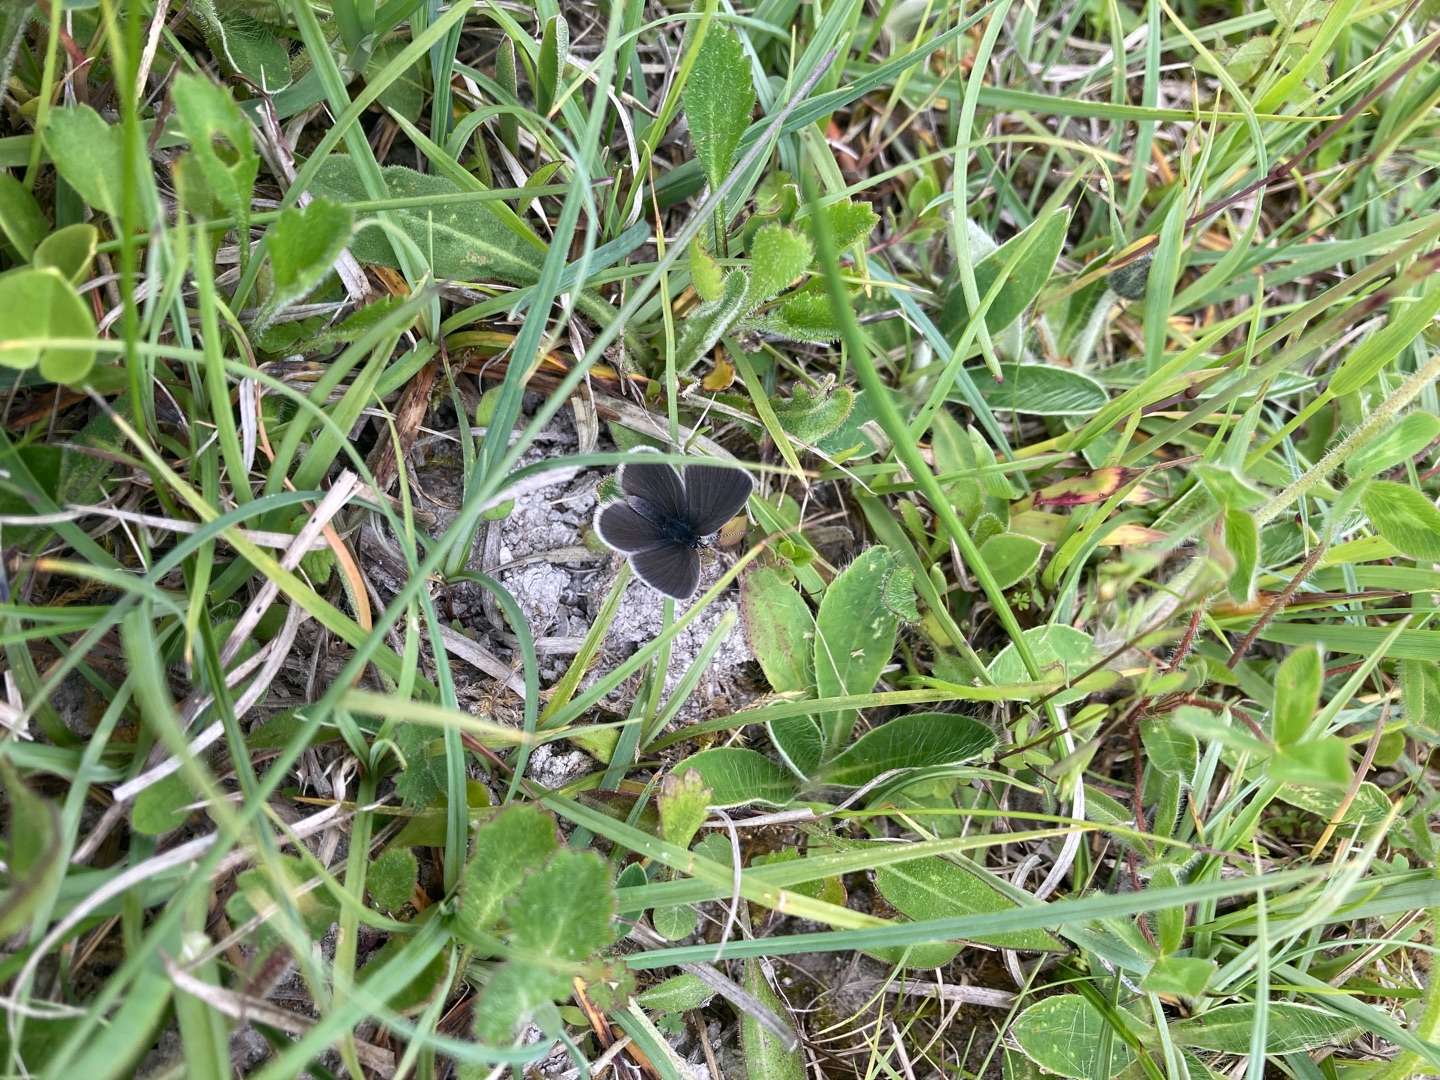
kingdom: Animalia
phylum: Arthropoda
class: Insecta
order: Lepidoptera
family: Lycaenidae
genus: Cupido
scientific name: Cupido minimus
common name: Dværgblåfugl
